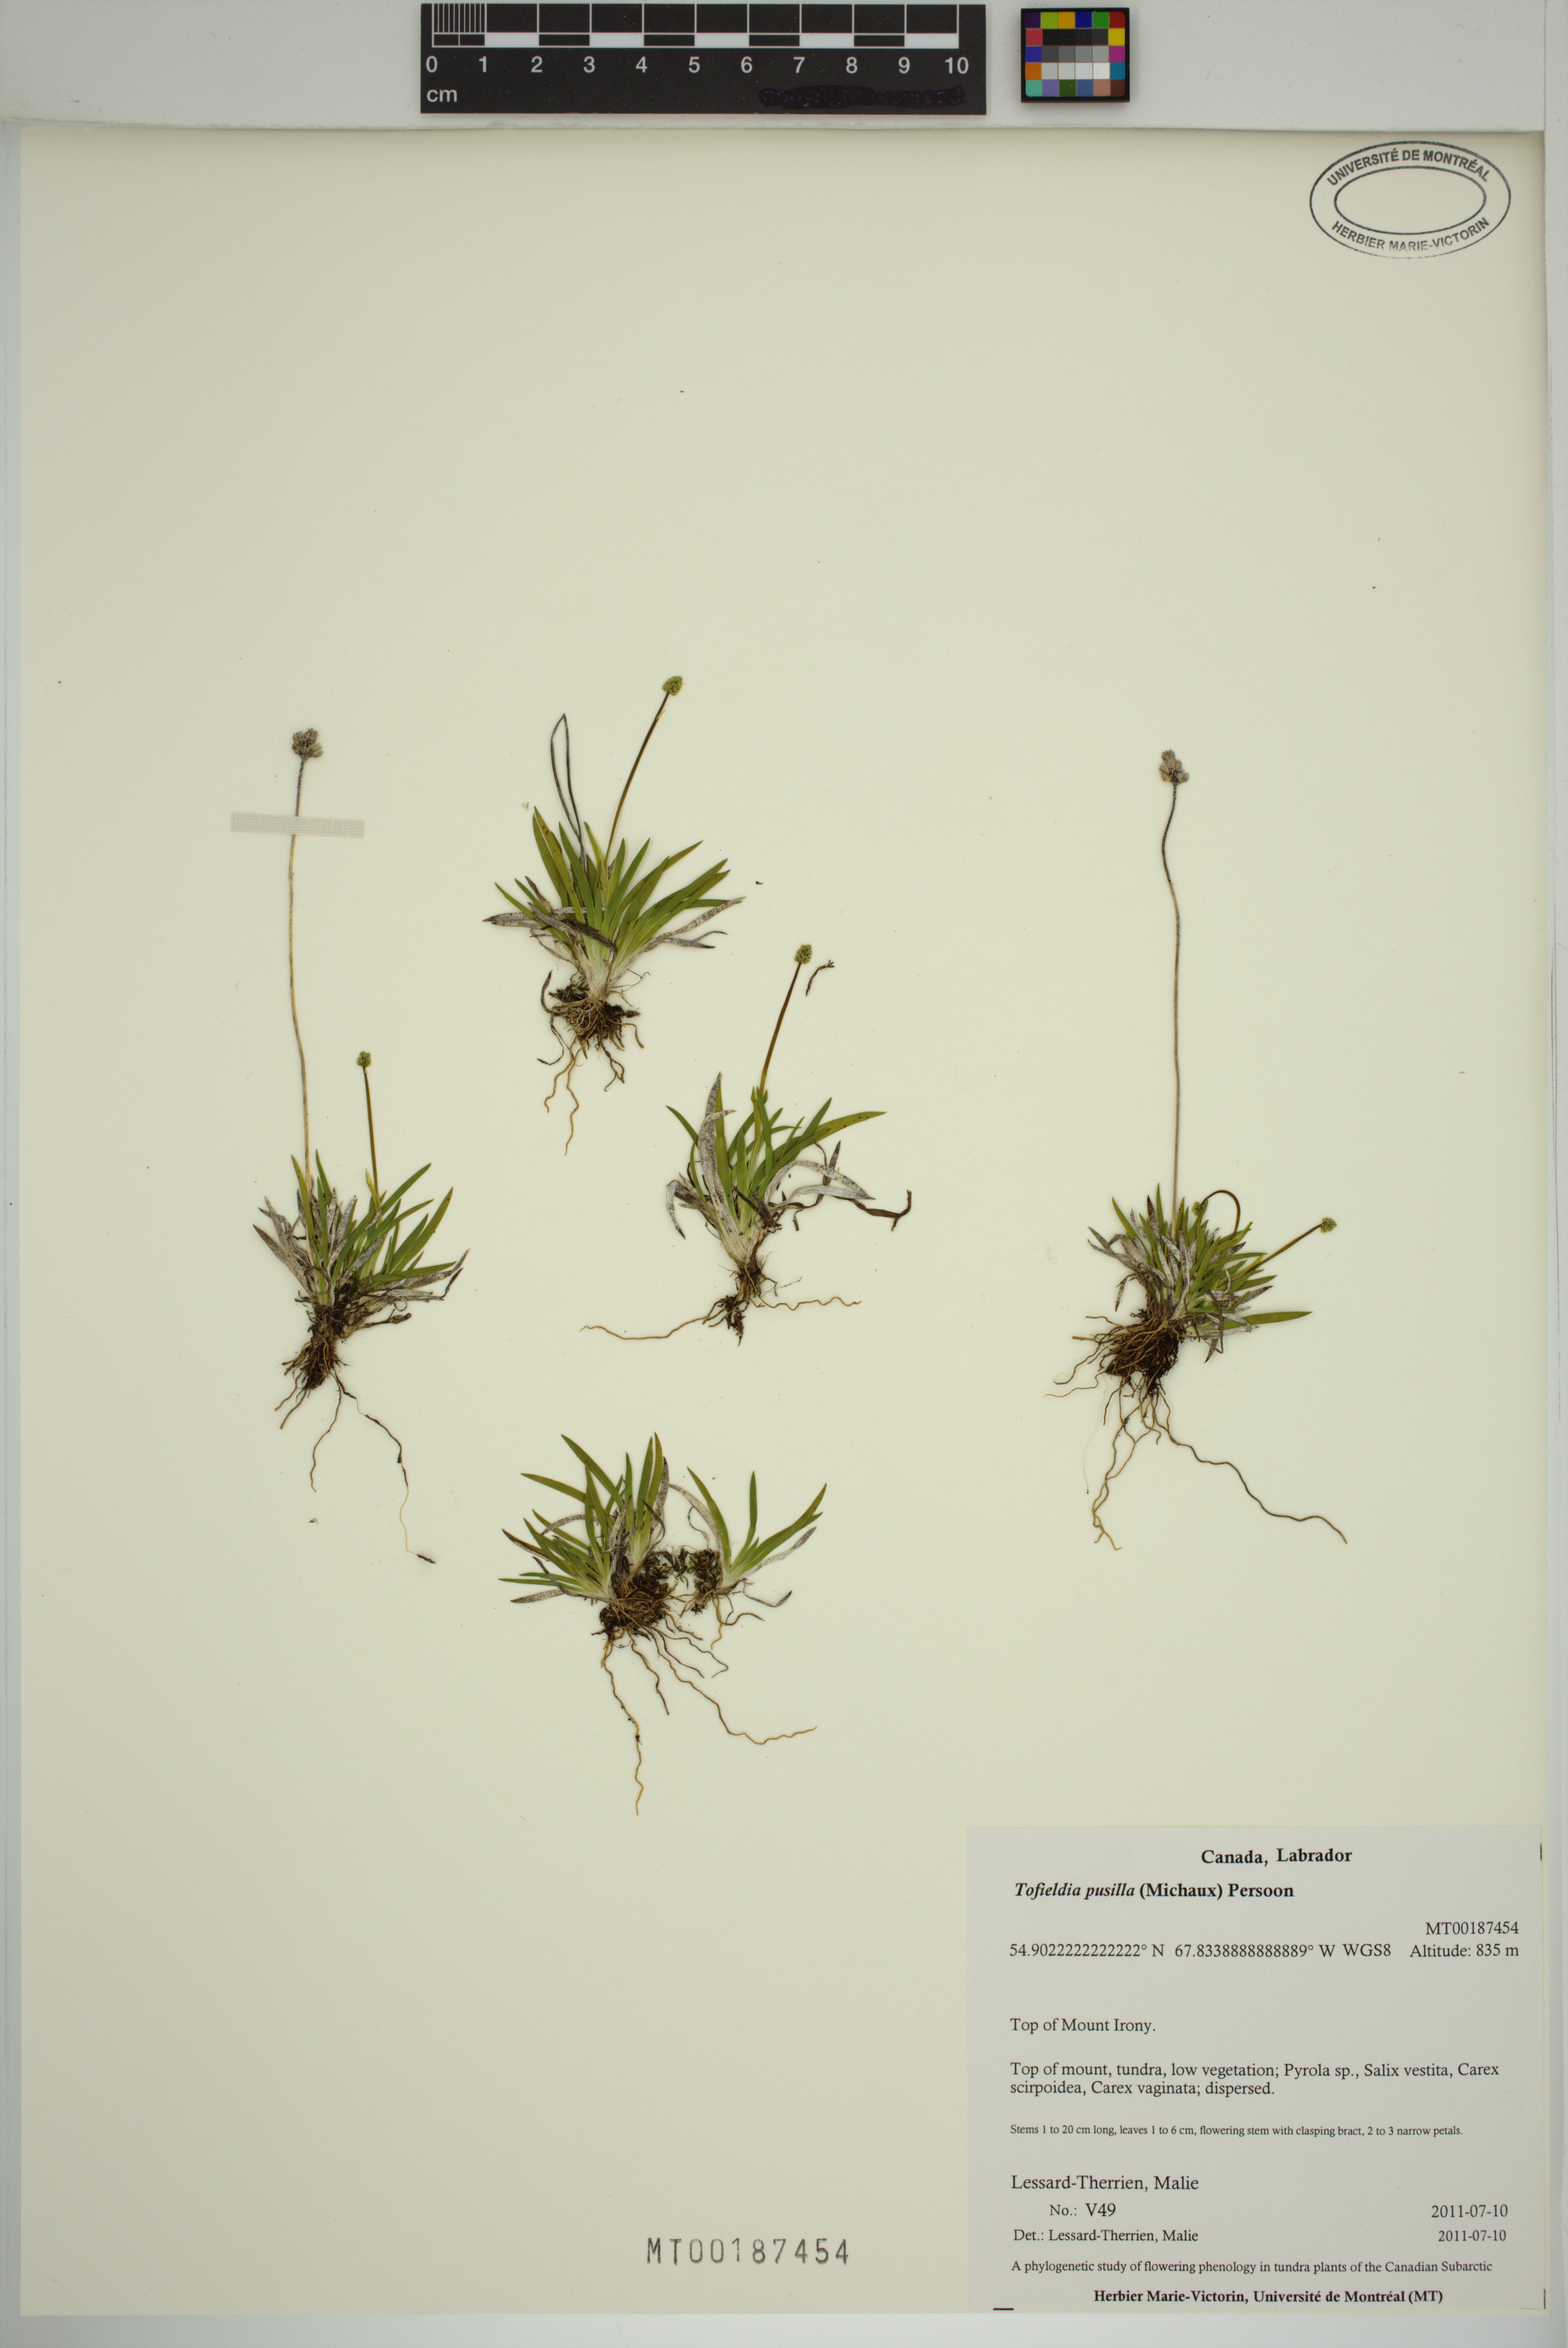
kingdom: Plantae
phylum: Tracheophyta
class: Liliopsida
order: Alismatales
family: Tofieldiaceae
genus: Tofieldia
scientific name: Tofieldia pusilla
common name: Scottish false asphodel
